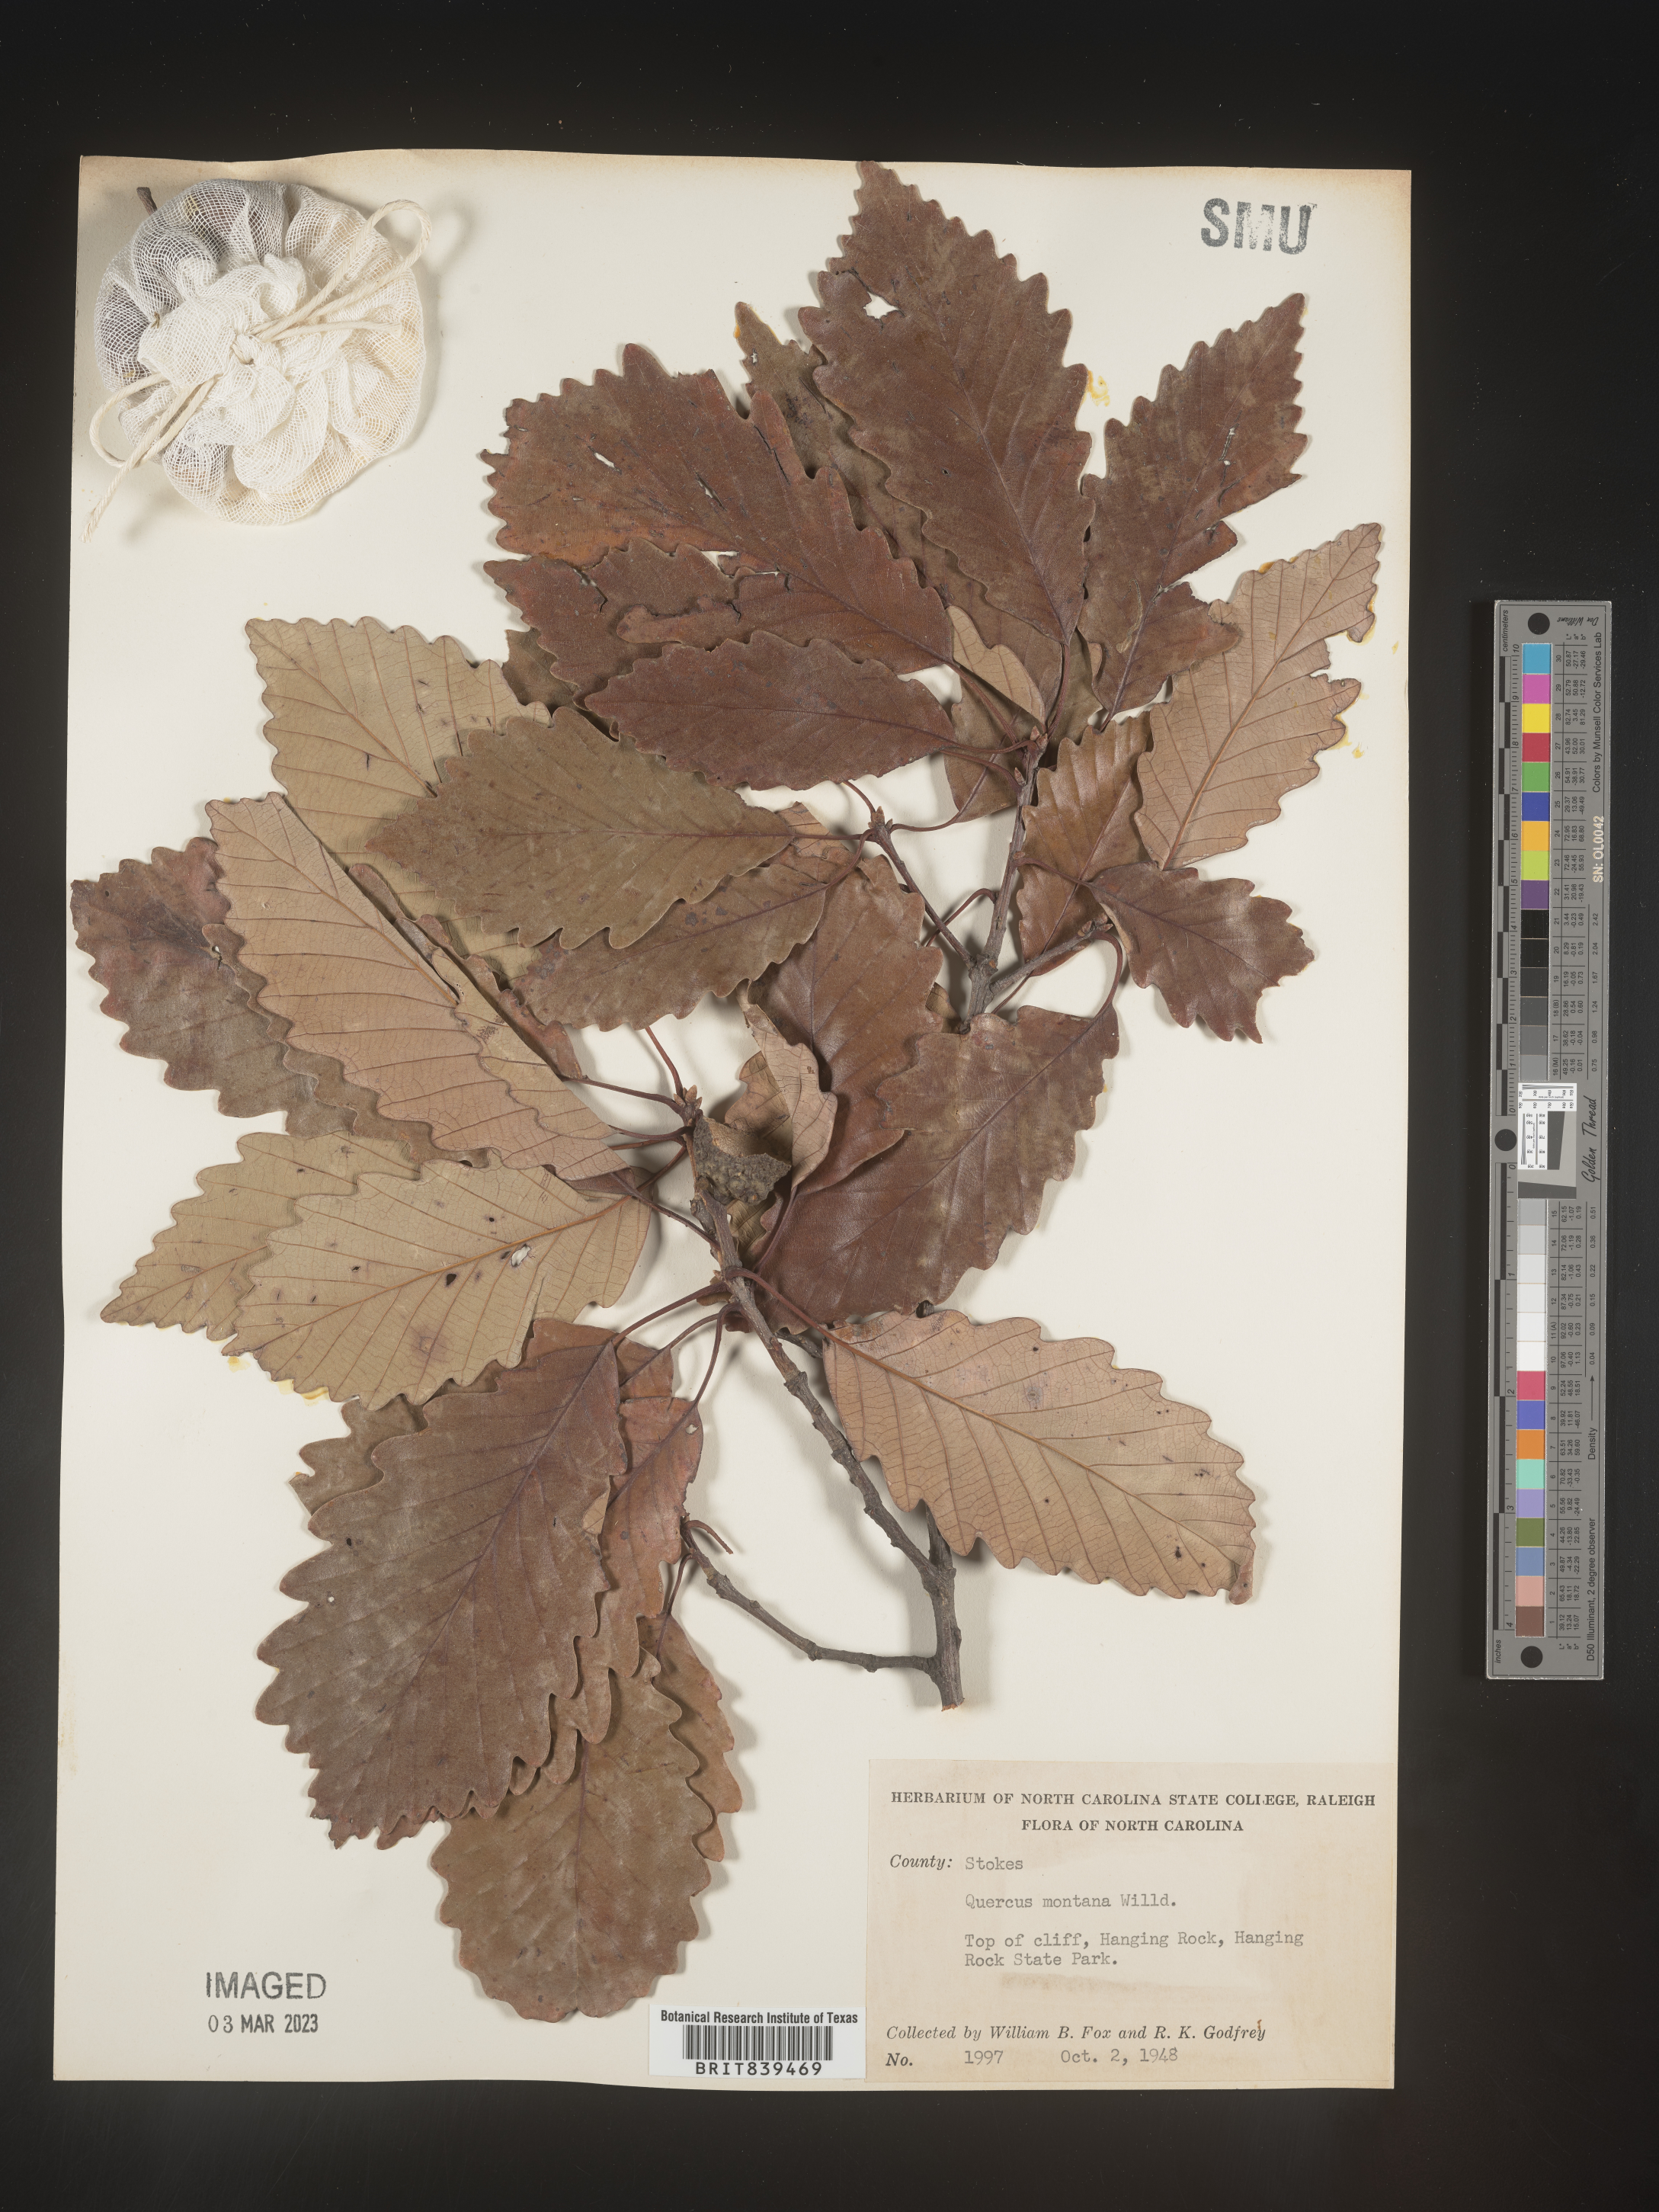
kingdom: Plantae
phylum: Tracheophyta
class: Magnoliopsida
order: Fagales
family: Fagaceae
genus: Quercus
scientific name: Quercus montana
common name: Chestnut oak
